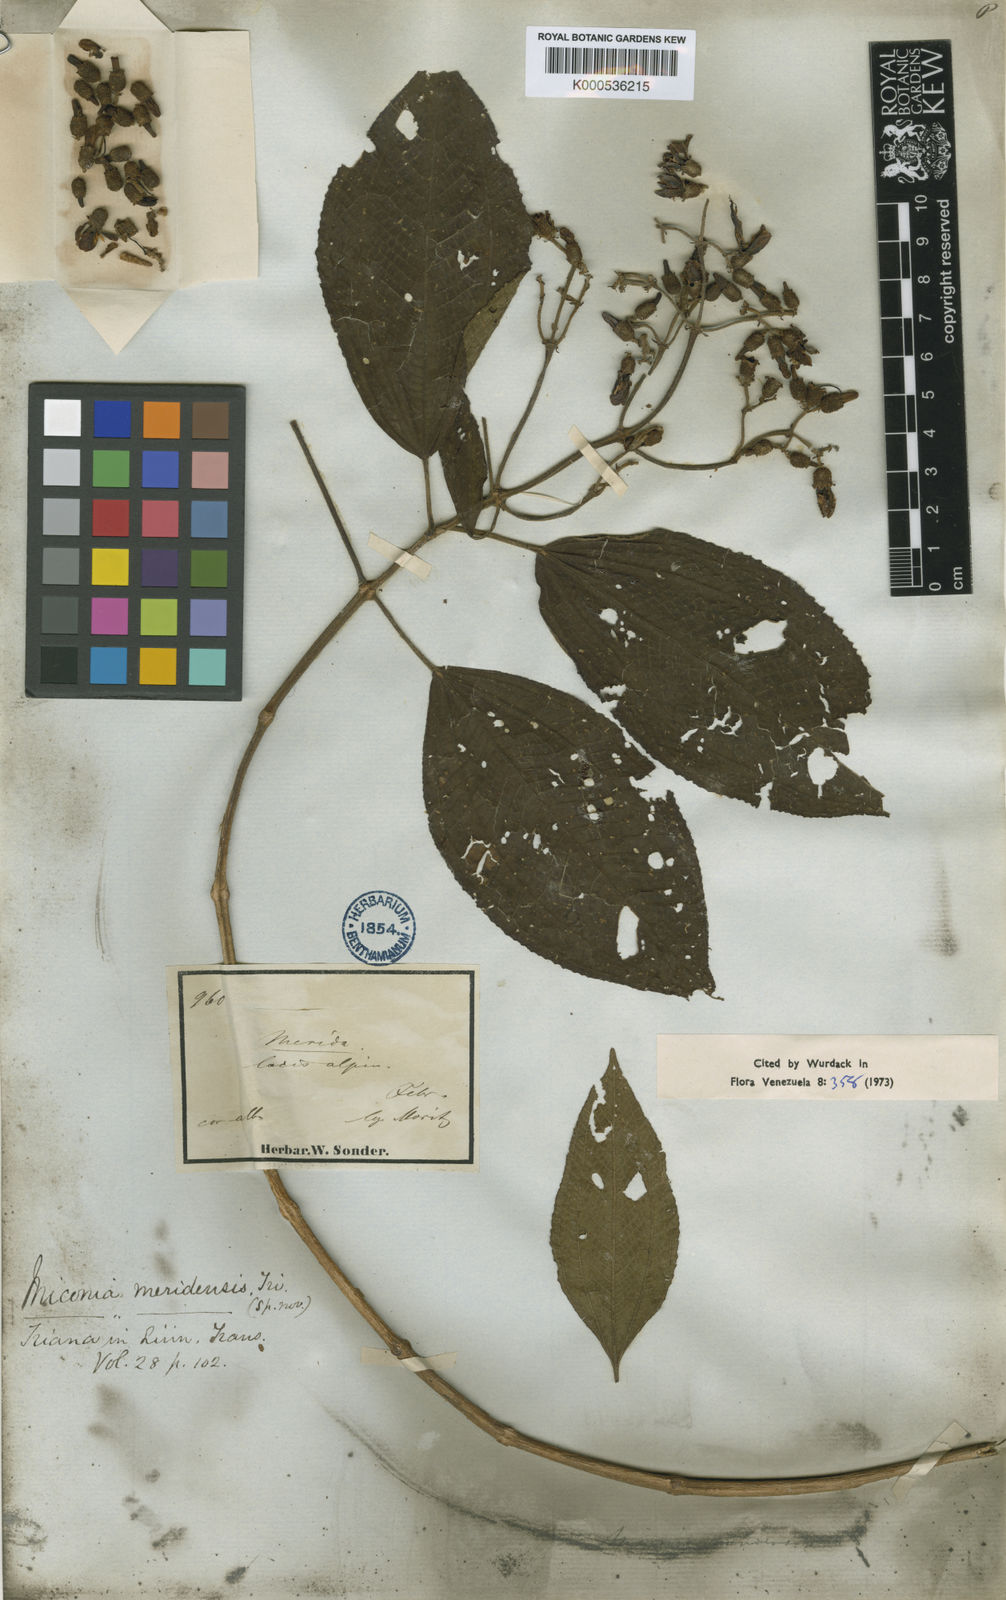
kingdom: Plantae
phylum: Tracheophyta
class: Magnoliopsida
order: Myrtales
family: Melastomataceae
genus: Miconia
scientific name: Miconia meridensis
